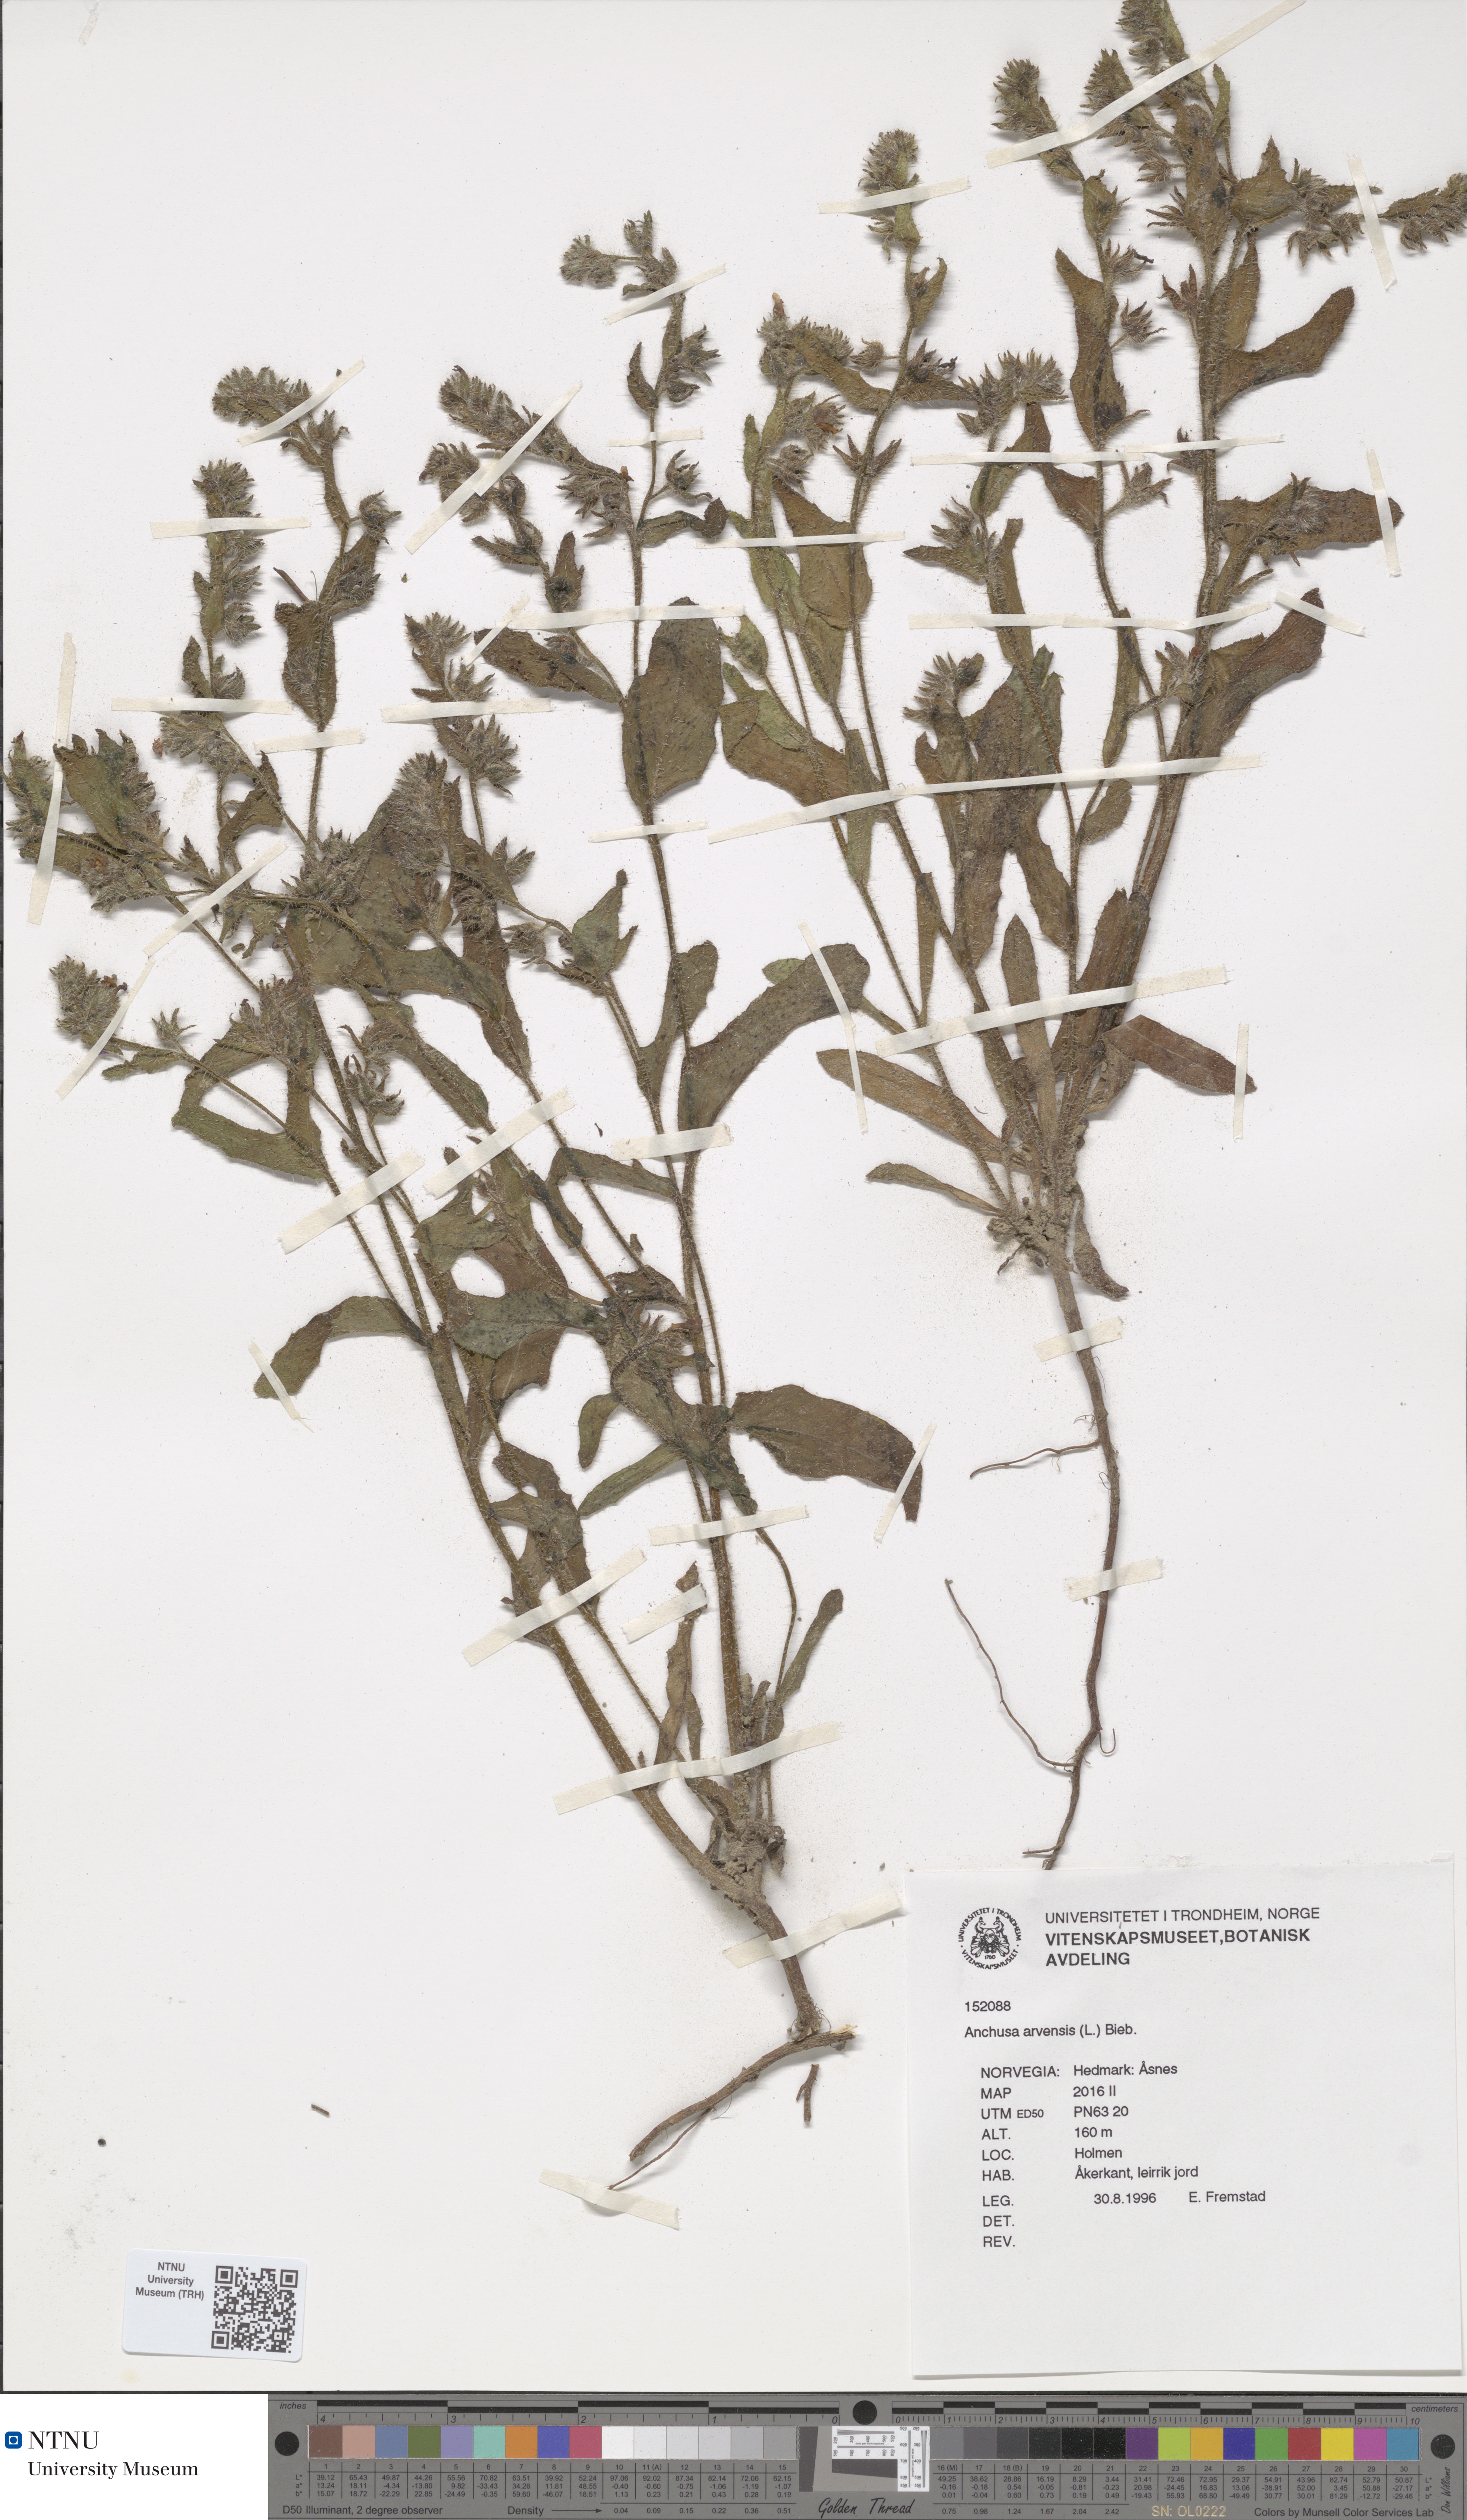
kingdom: Plantae
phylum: Tracheophyta
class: Magnoliopsida
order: Boraginales
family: Boraginaceae
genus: Lycopsis
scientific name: Lycopsis arvensis
